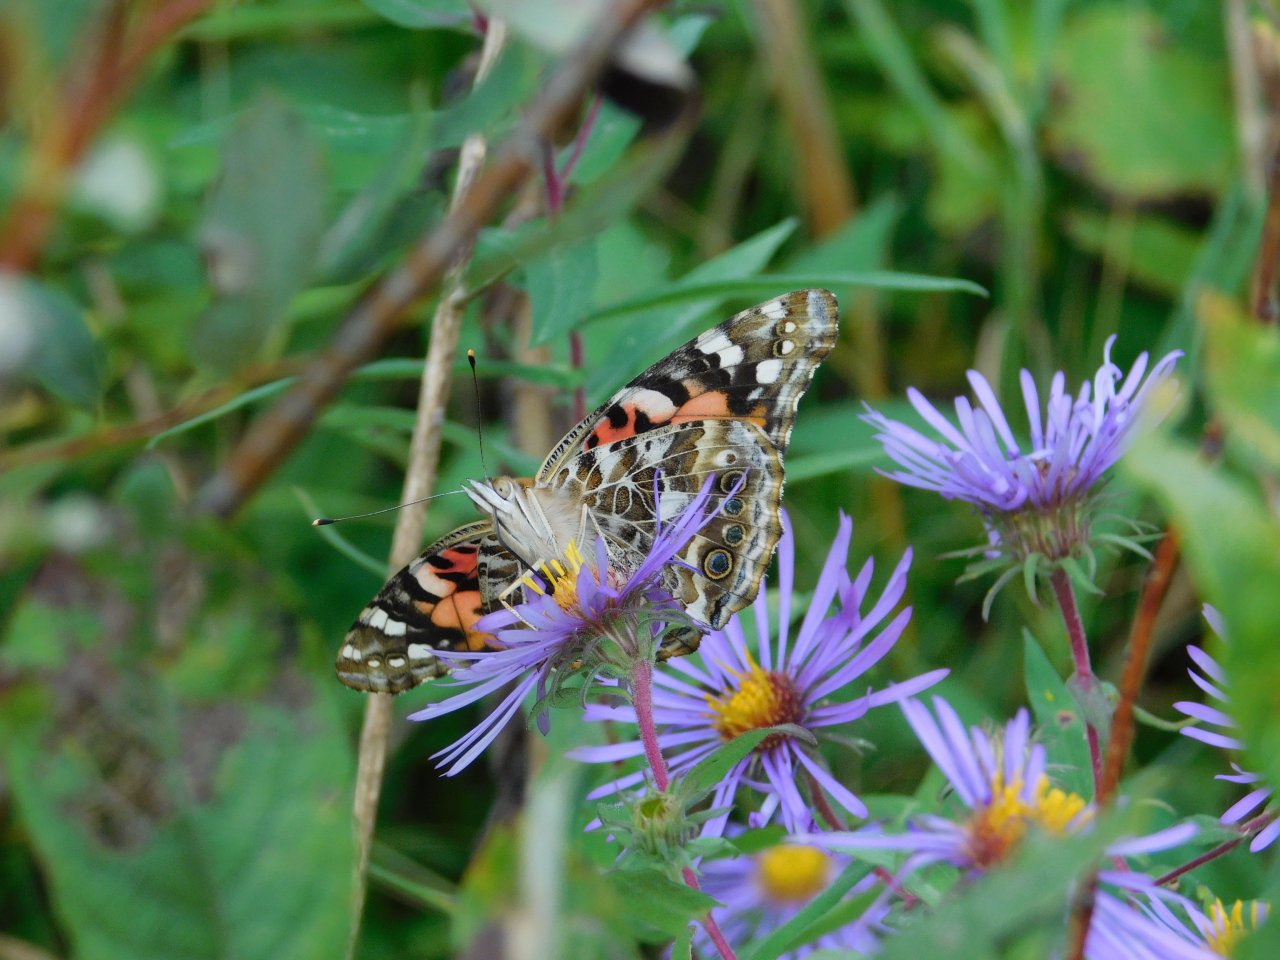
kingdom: Animalia
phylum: Arthropoda
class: Insecta
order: Lepidoptera
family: Nymphalidae
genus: Vanessa
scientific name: Vanessa cardui
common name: Painted Lady
